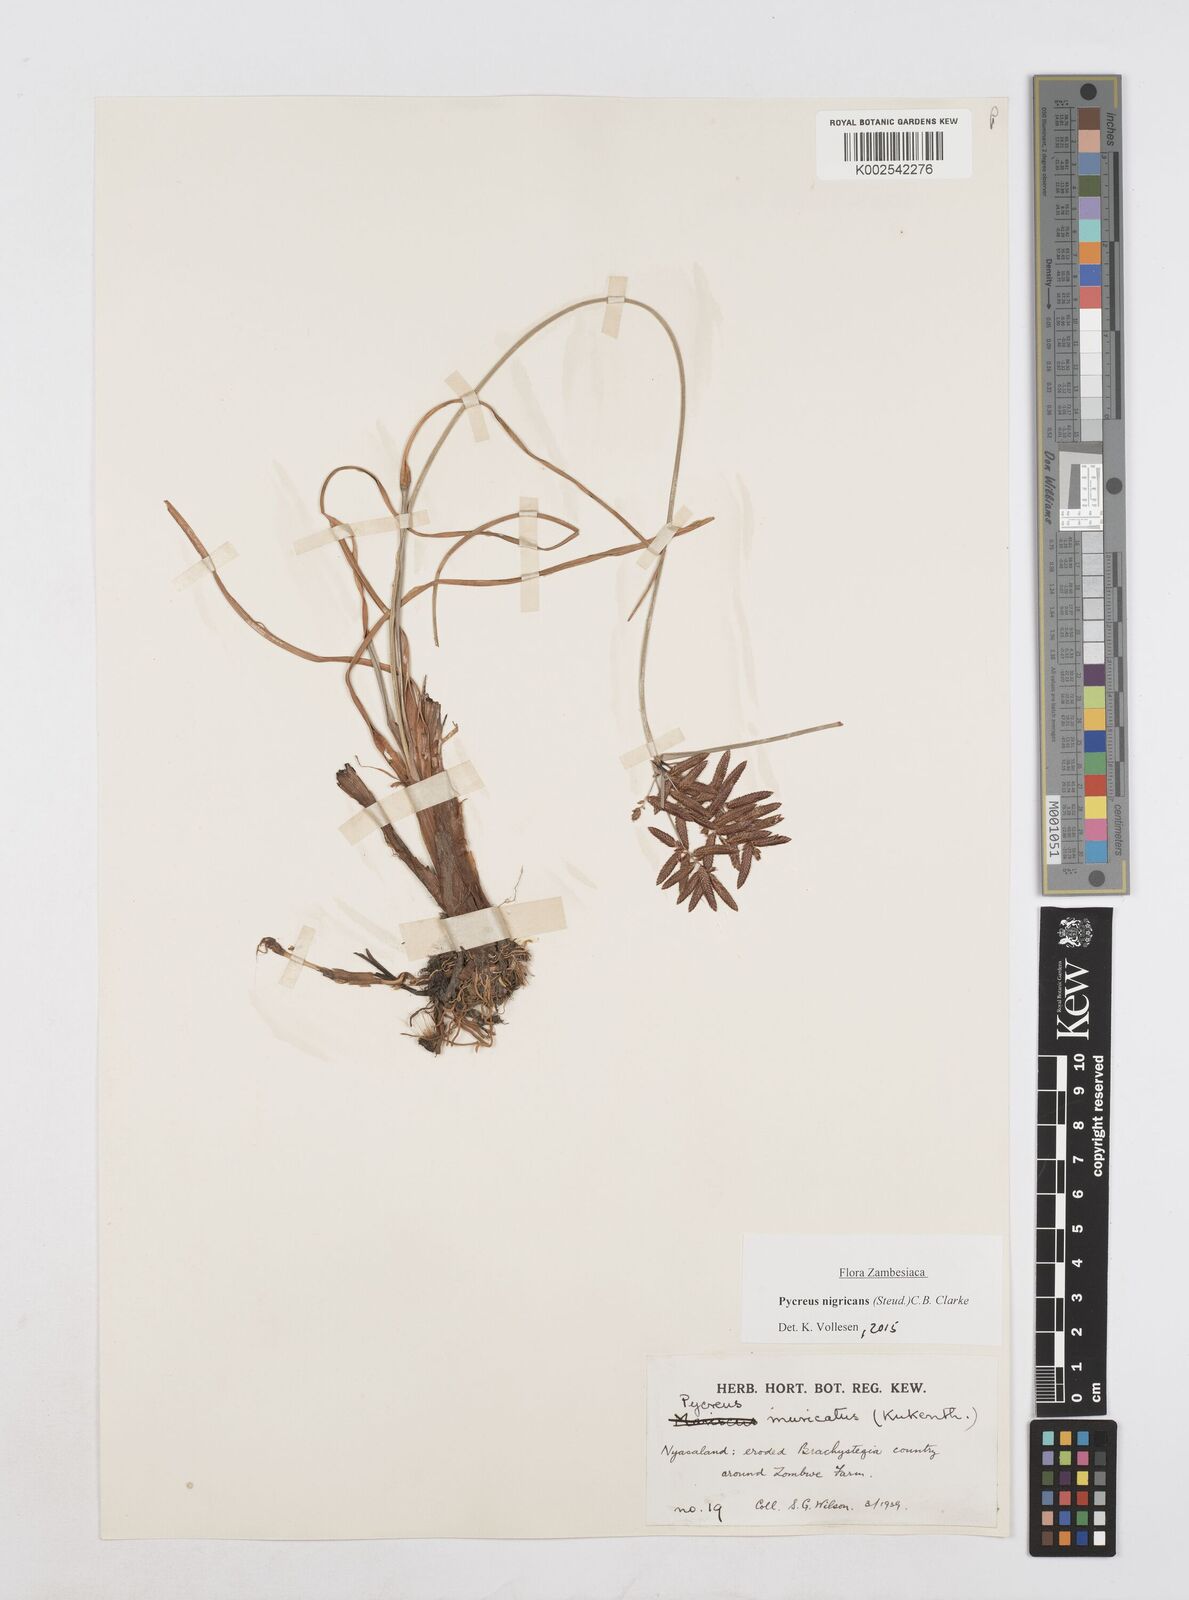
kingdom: Plantae
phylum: Tracheophyta
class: Liliopsida
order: Poales
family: Cyperaceae
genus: Cyperus
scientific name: Cyperus nigricans
